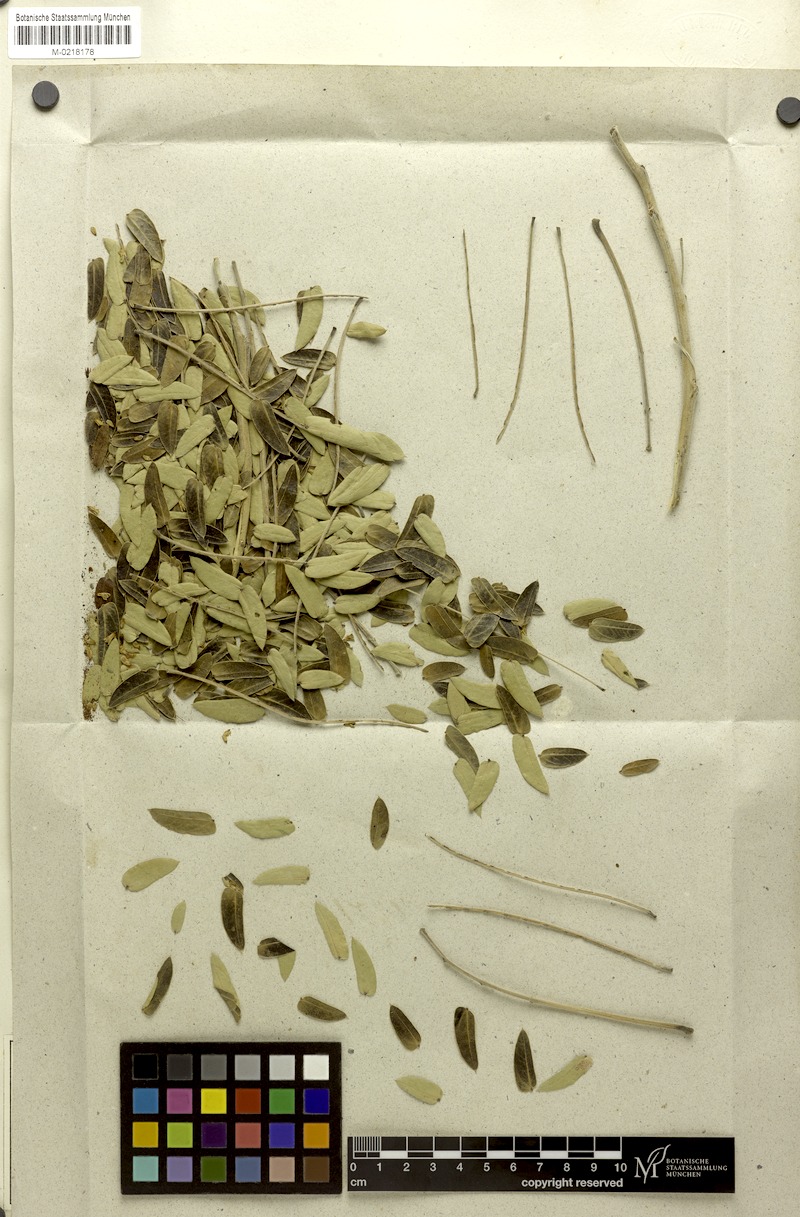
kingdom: Plantae
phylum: Tracheophyta
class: Magnoliopsida
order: Fabales
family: Fabaceae
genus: Enterolobium
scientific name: Enterolobium contortisiliquum
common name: Pacara earpod tree
